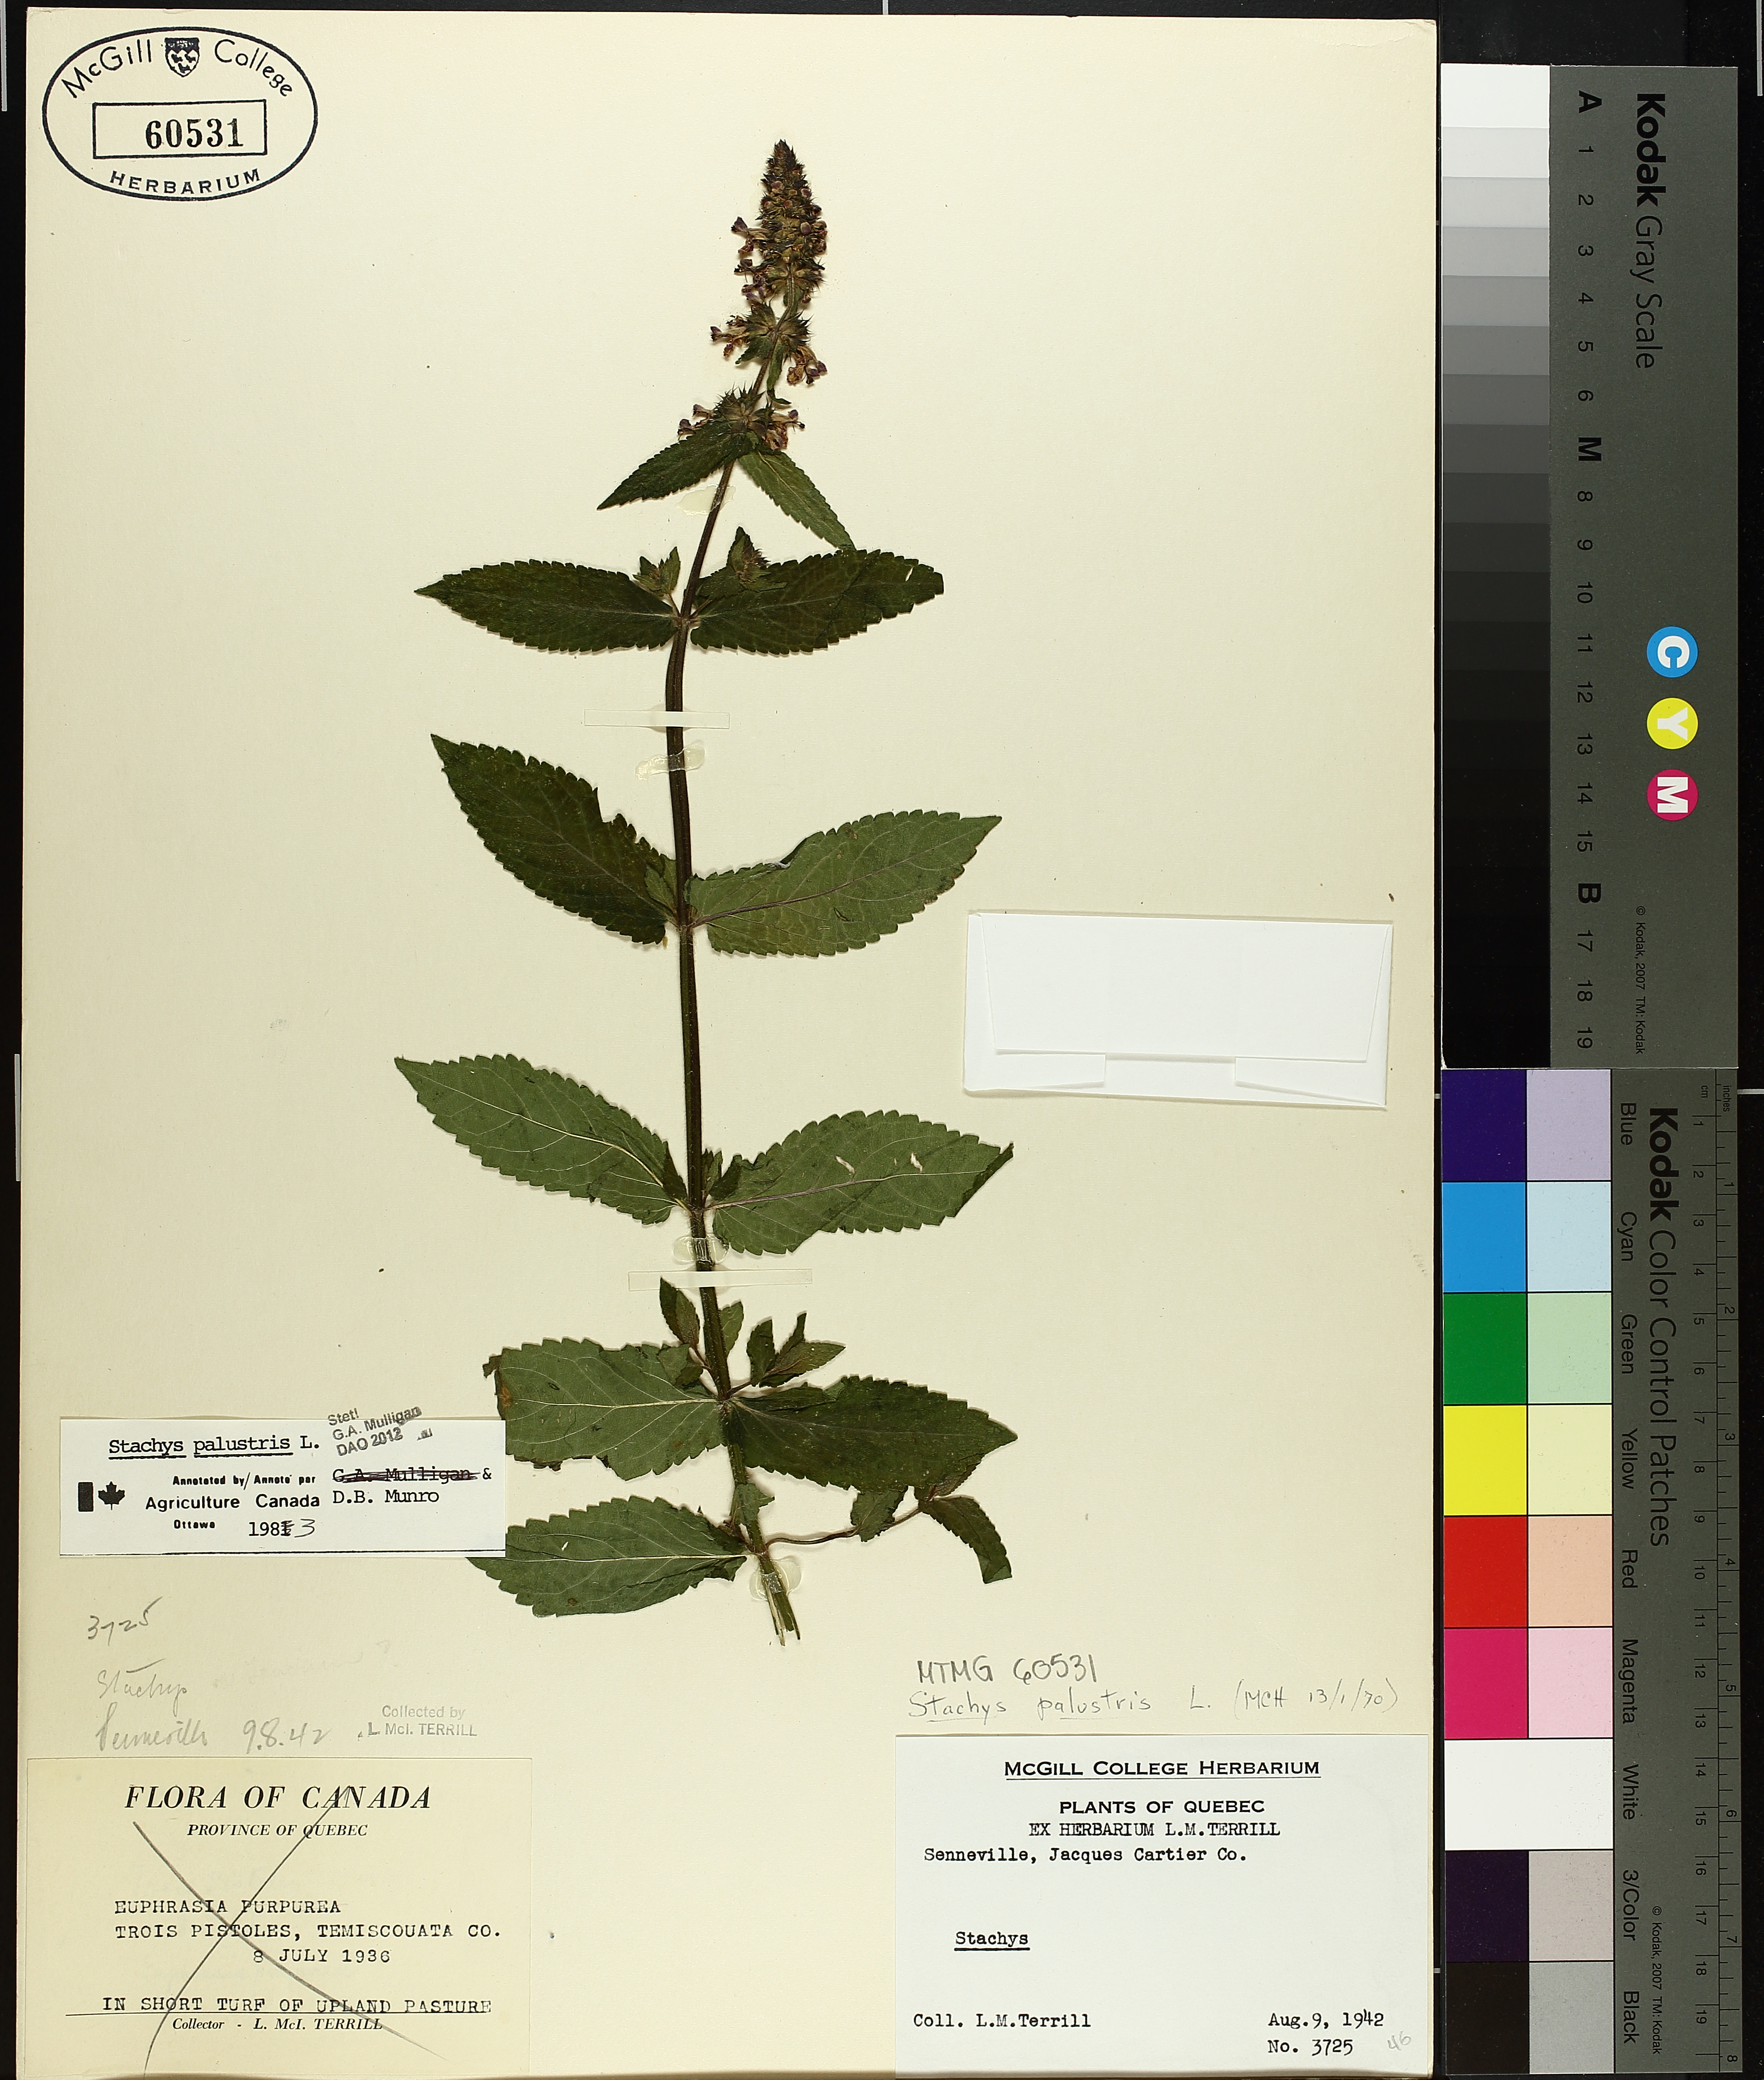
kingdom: Plantae
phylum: Tracheophyta
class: Magnoliopsida
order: Lamiales
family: Lamiaceae
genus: Stachys
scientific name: Stachys palustris
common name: Marsh woundwort
